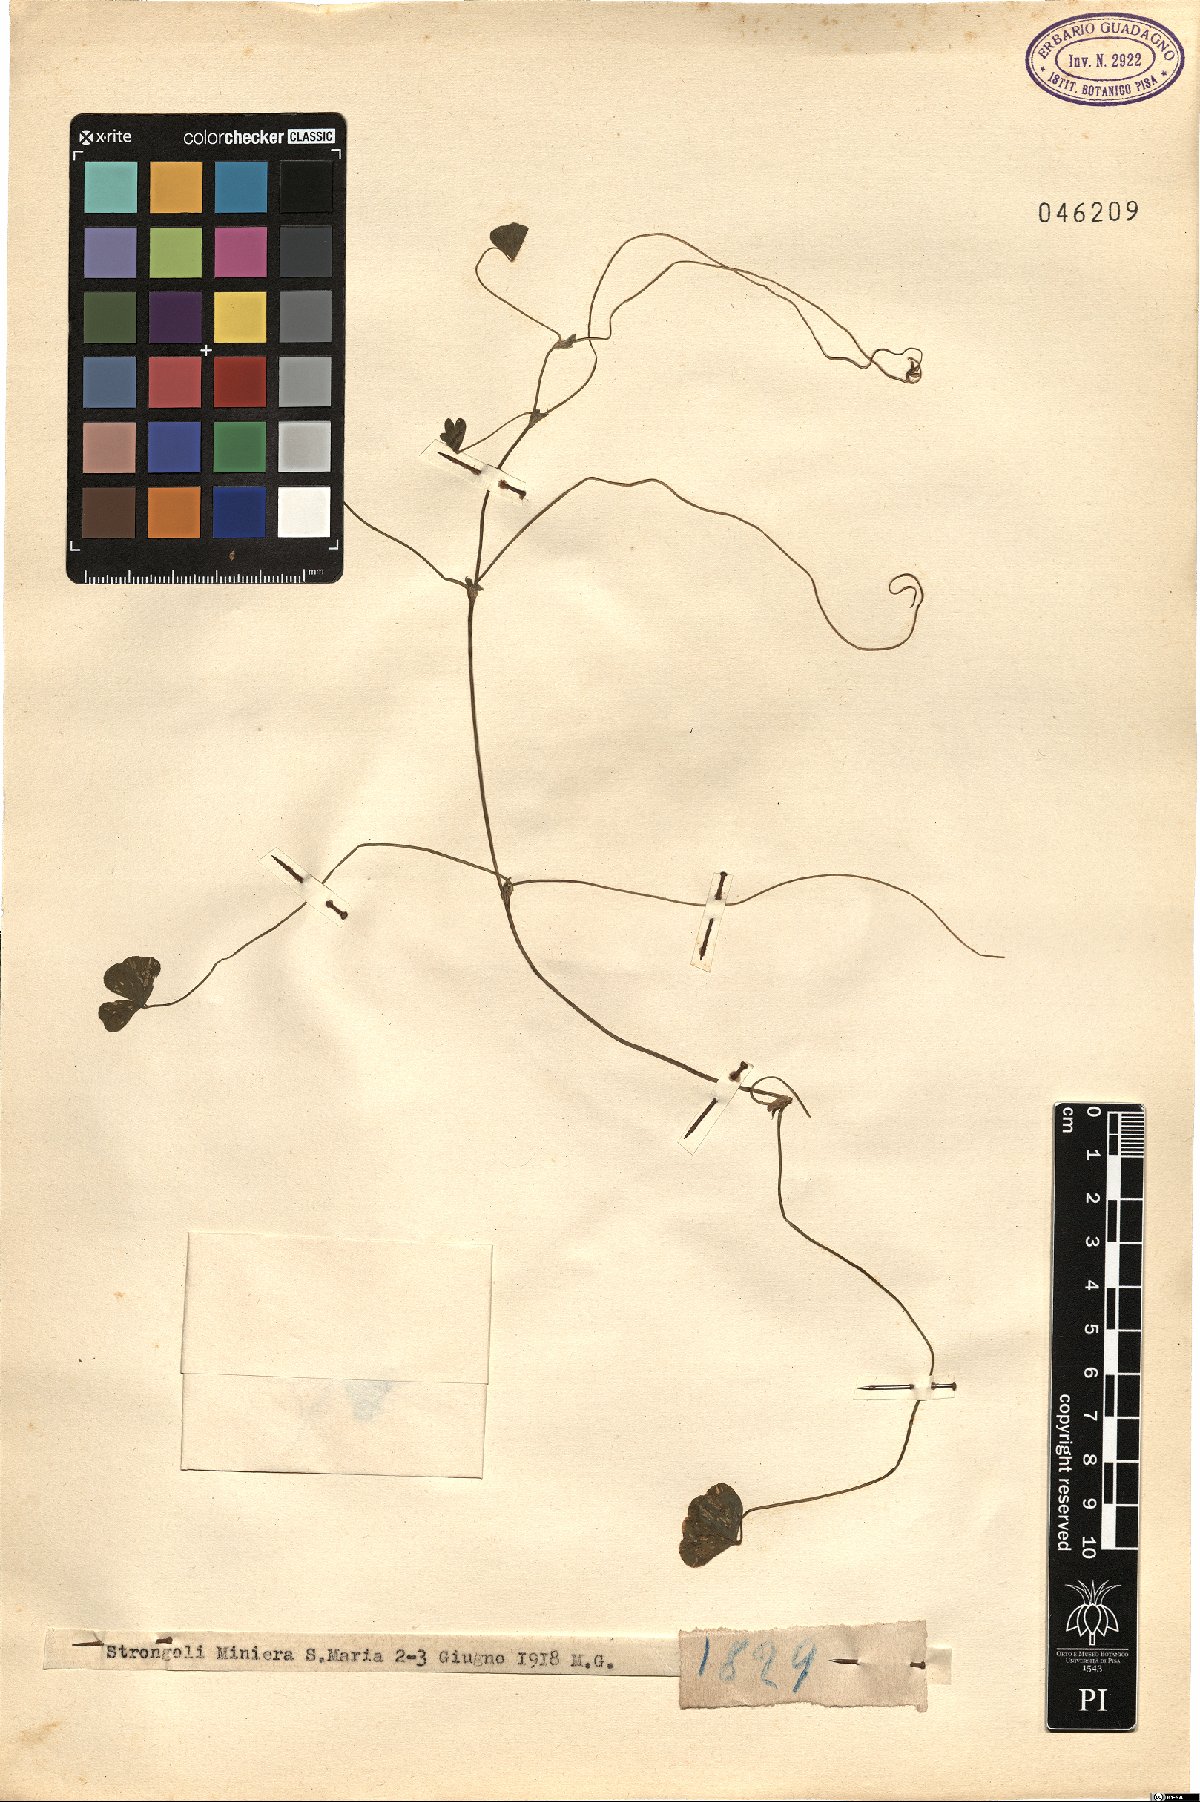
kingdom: Plantae
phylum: Tracheophyta
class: Magnoliopsida
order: Fabales
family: Fabaceae
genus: Trifolium
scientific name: Trifolium
